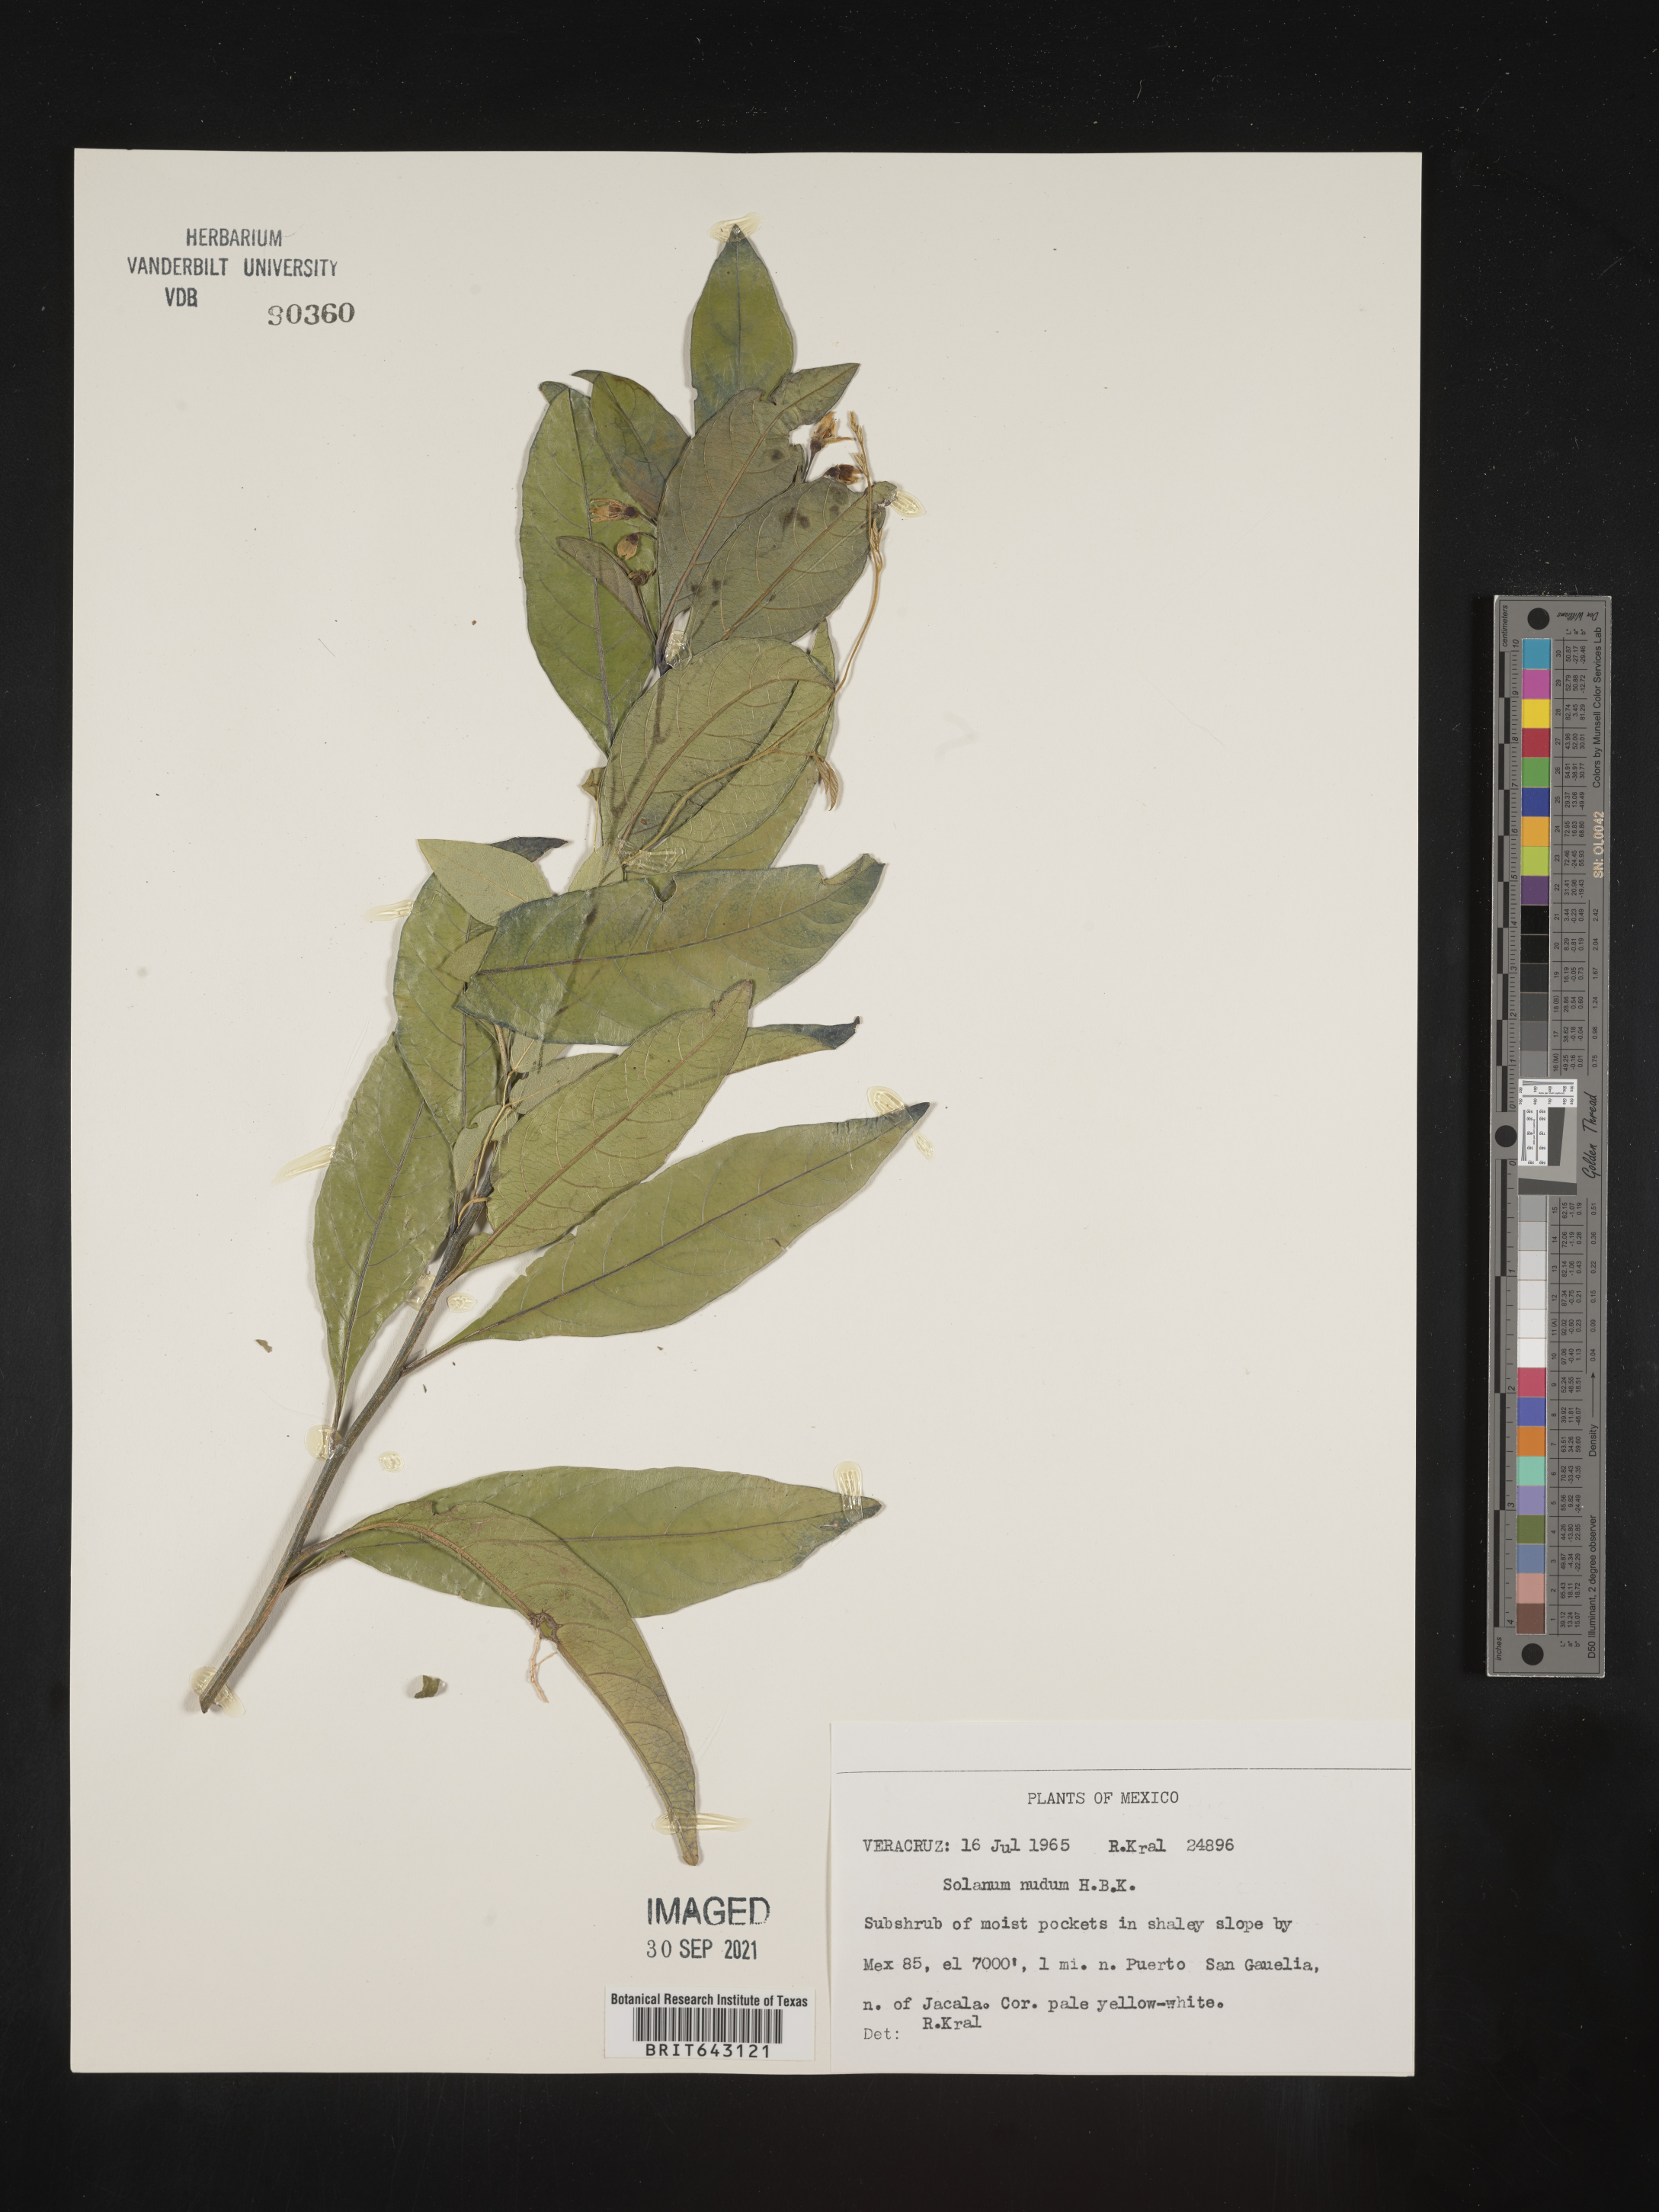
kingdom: Plantae
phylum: Tracheophyta
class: Magnoliopsida
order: Solanales
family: Solanaceae
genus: Solanum
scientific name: Solanum
